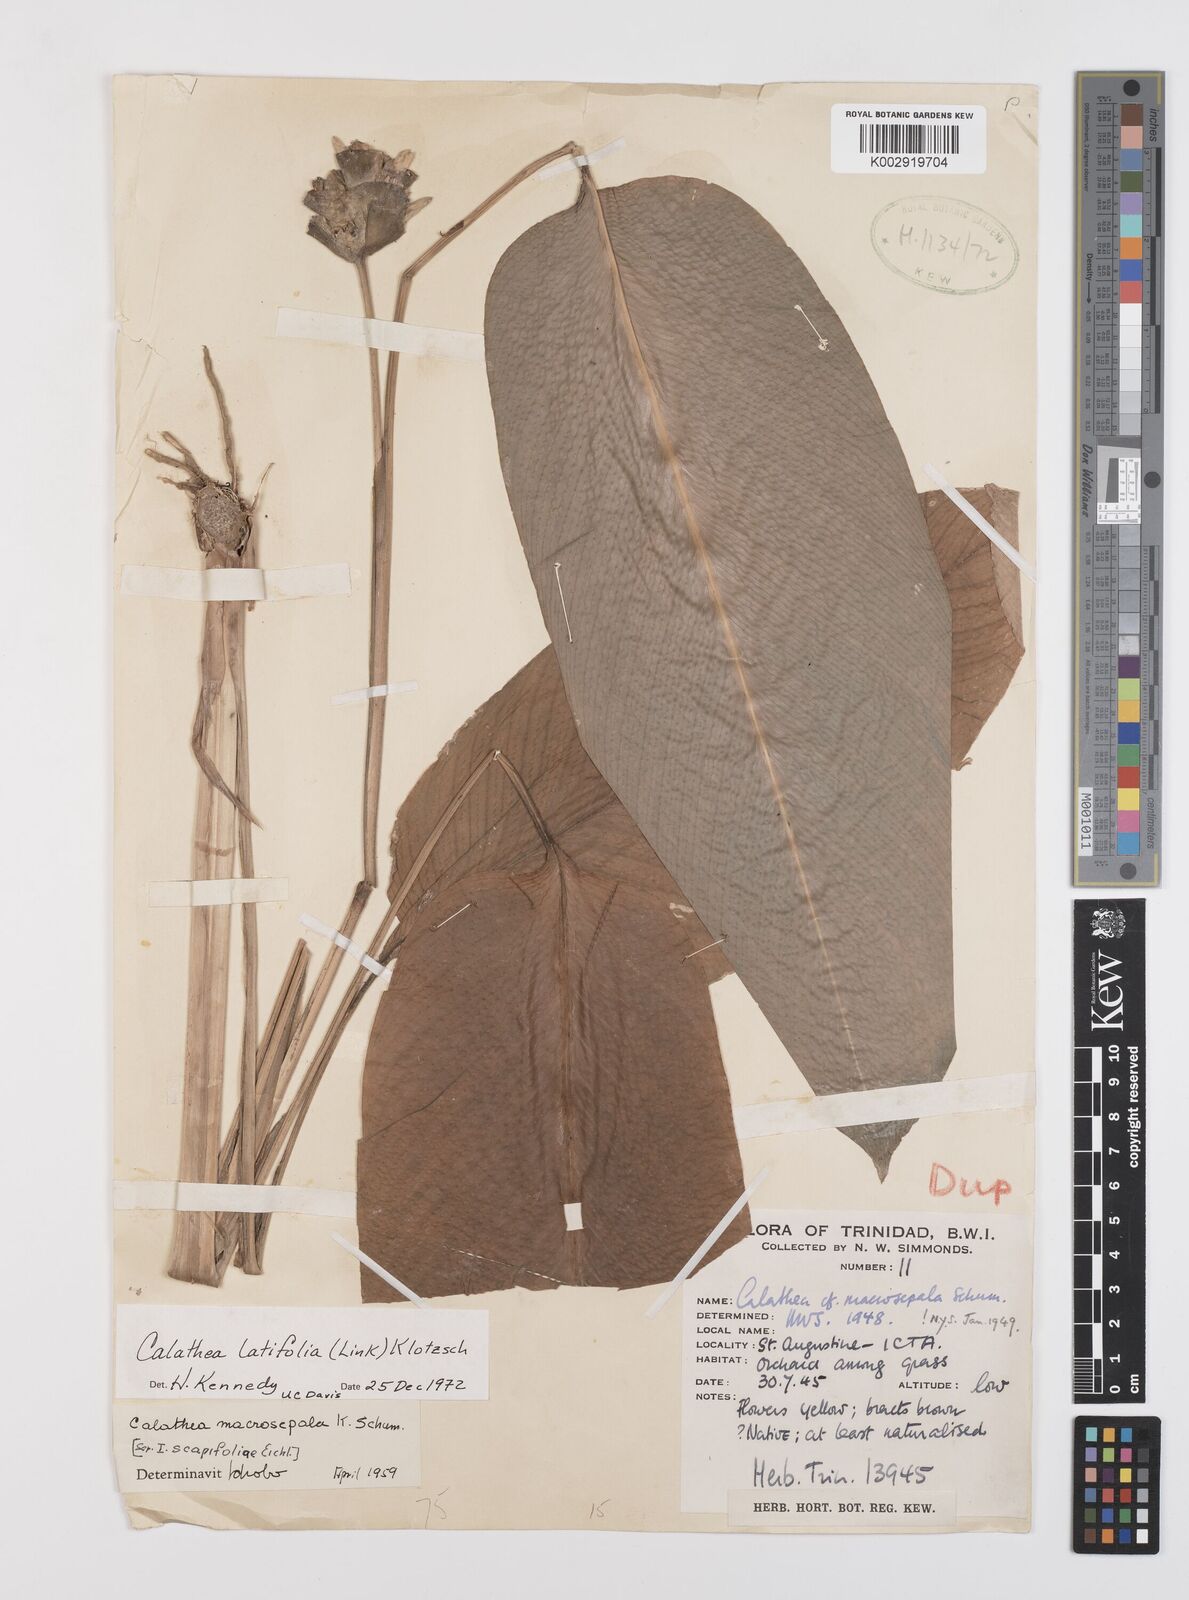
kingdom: Plantae
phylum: Tracheophyta
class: Liliopsida
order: Zingiberales
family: Marantaceae
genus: Goeppertia
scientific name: Goeppertia latifolia
